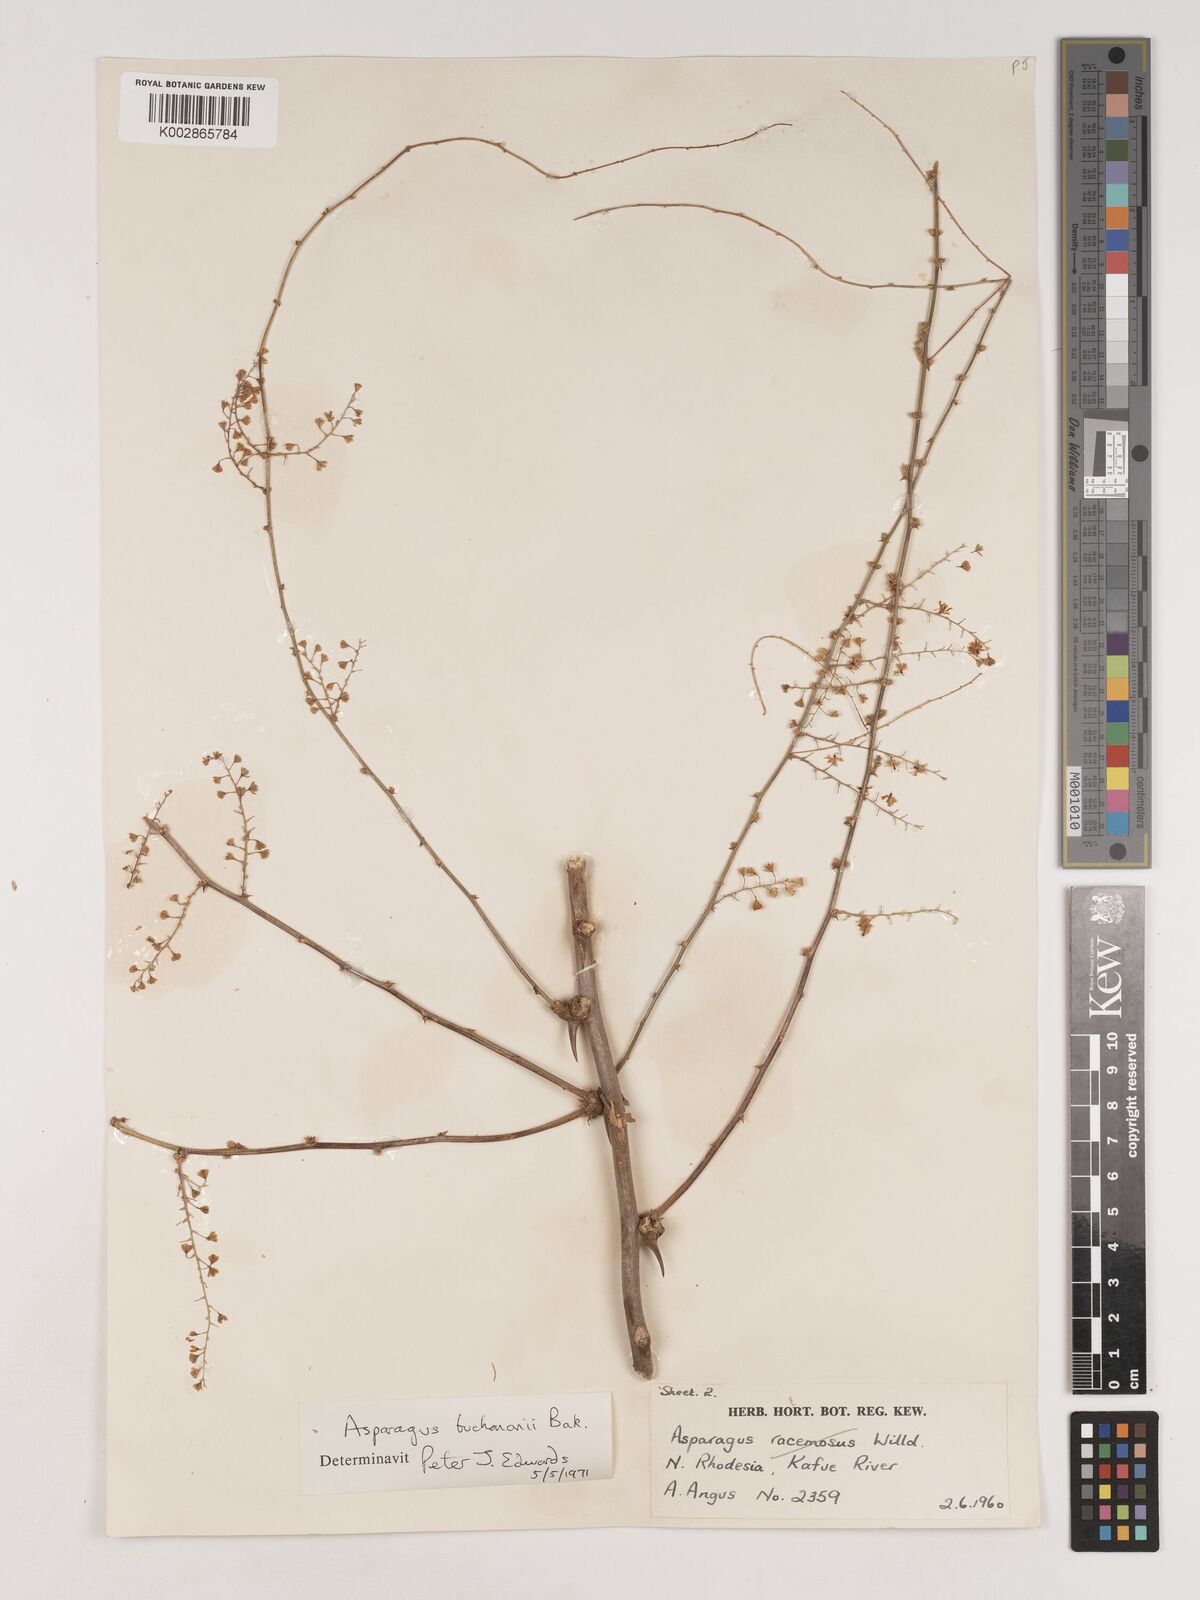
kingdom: Plantae
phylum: Tracheophyta
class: Liliopsida
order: Asparagales
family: Asparagaceae
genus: Asparagus
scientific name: Asparagus buchananii
